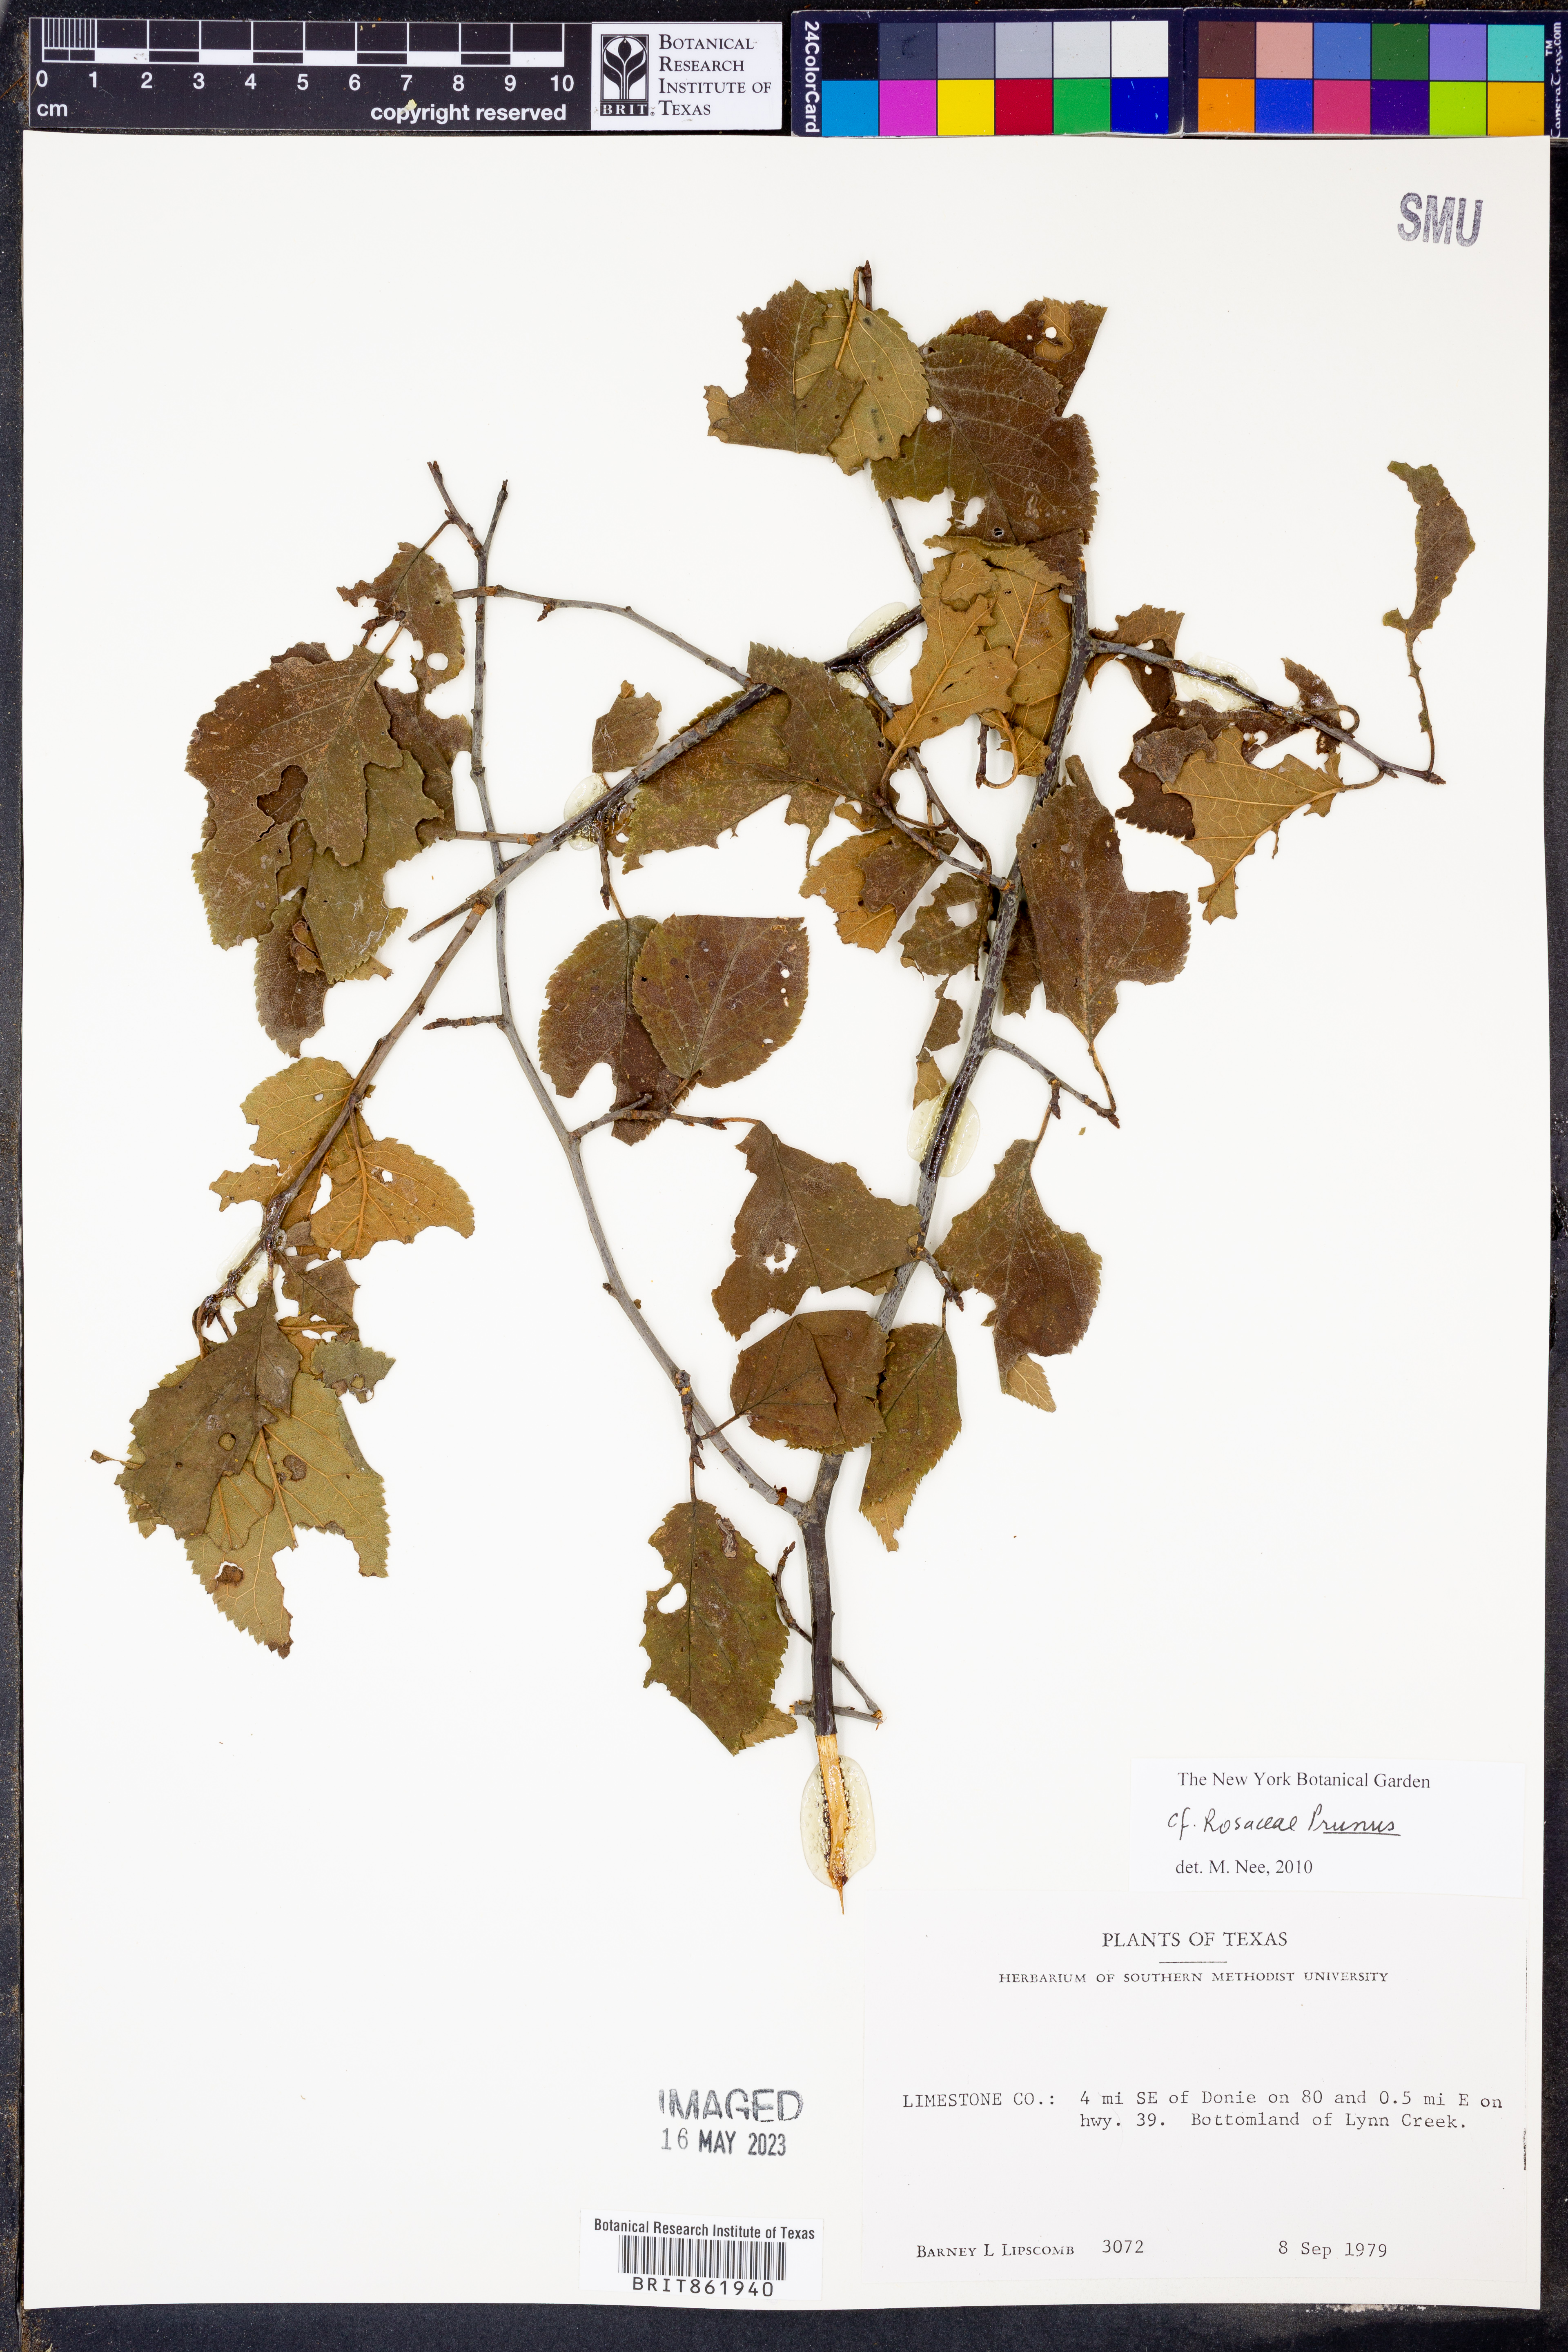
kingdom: Plantae
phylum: Tracheophyta
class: Magnoliopsida
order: Rosales
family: Rosaceae
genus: Prunus
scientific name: Prunus
